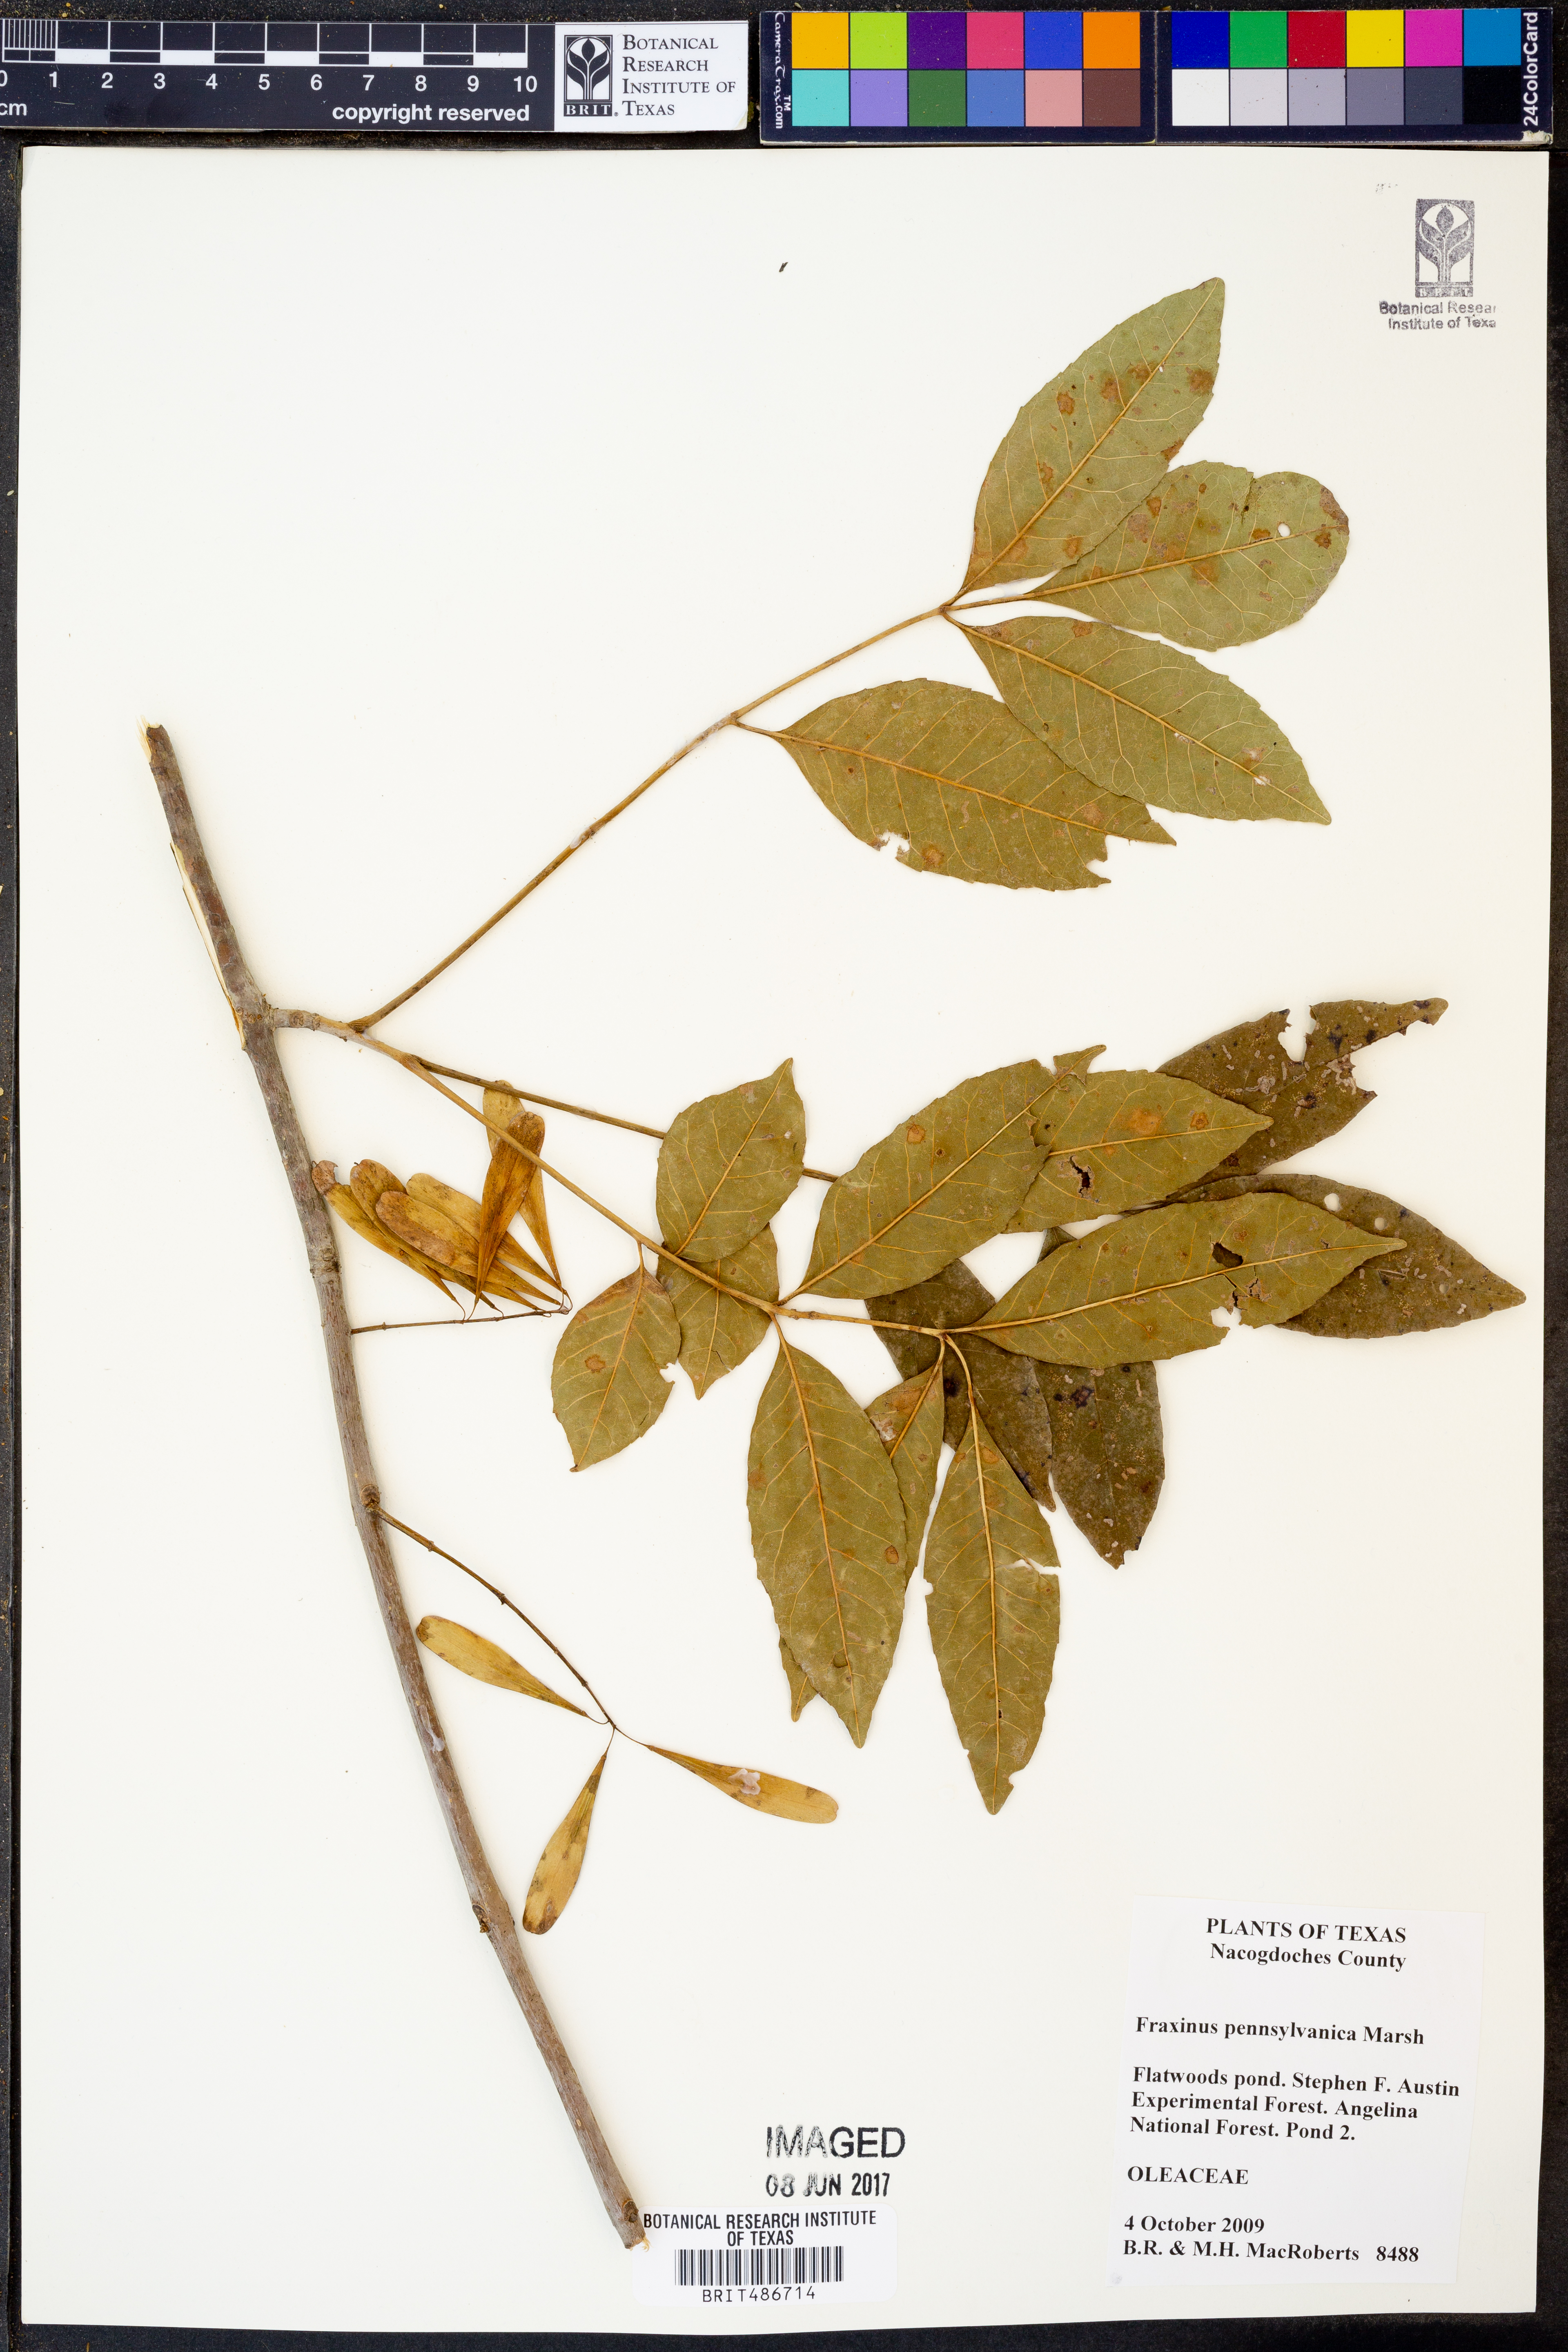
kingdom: Plantae
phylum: Tracheophyta
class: Magnoliopsida
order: Lamiales
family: Oleaceae
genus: Fraxinus
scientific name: Fraxinus pennsylvanica
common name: Green ash
